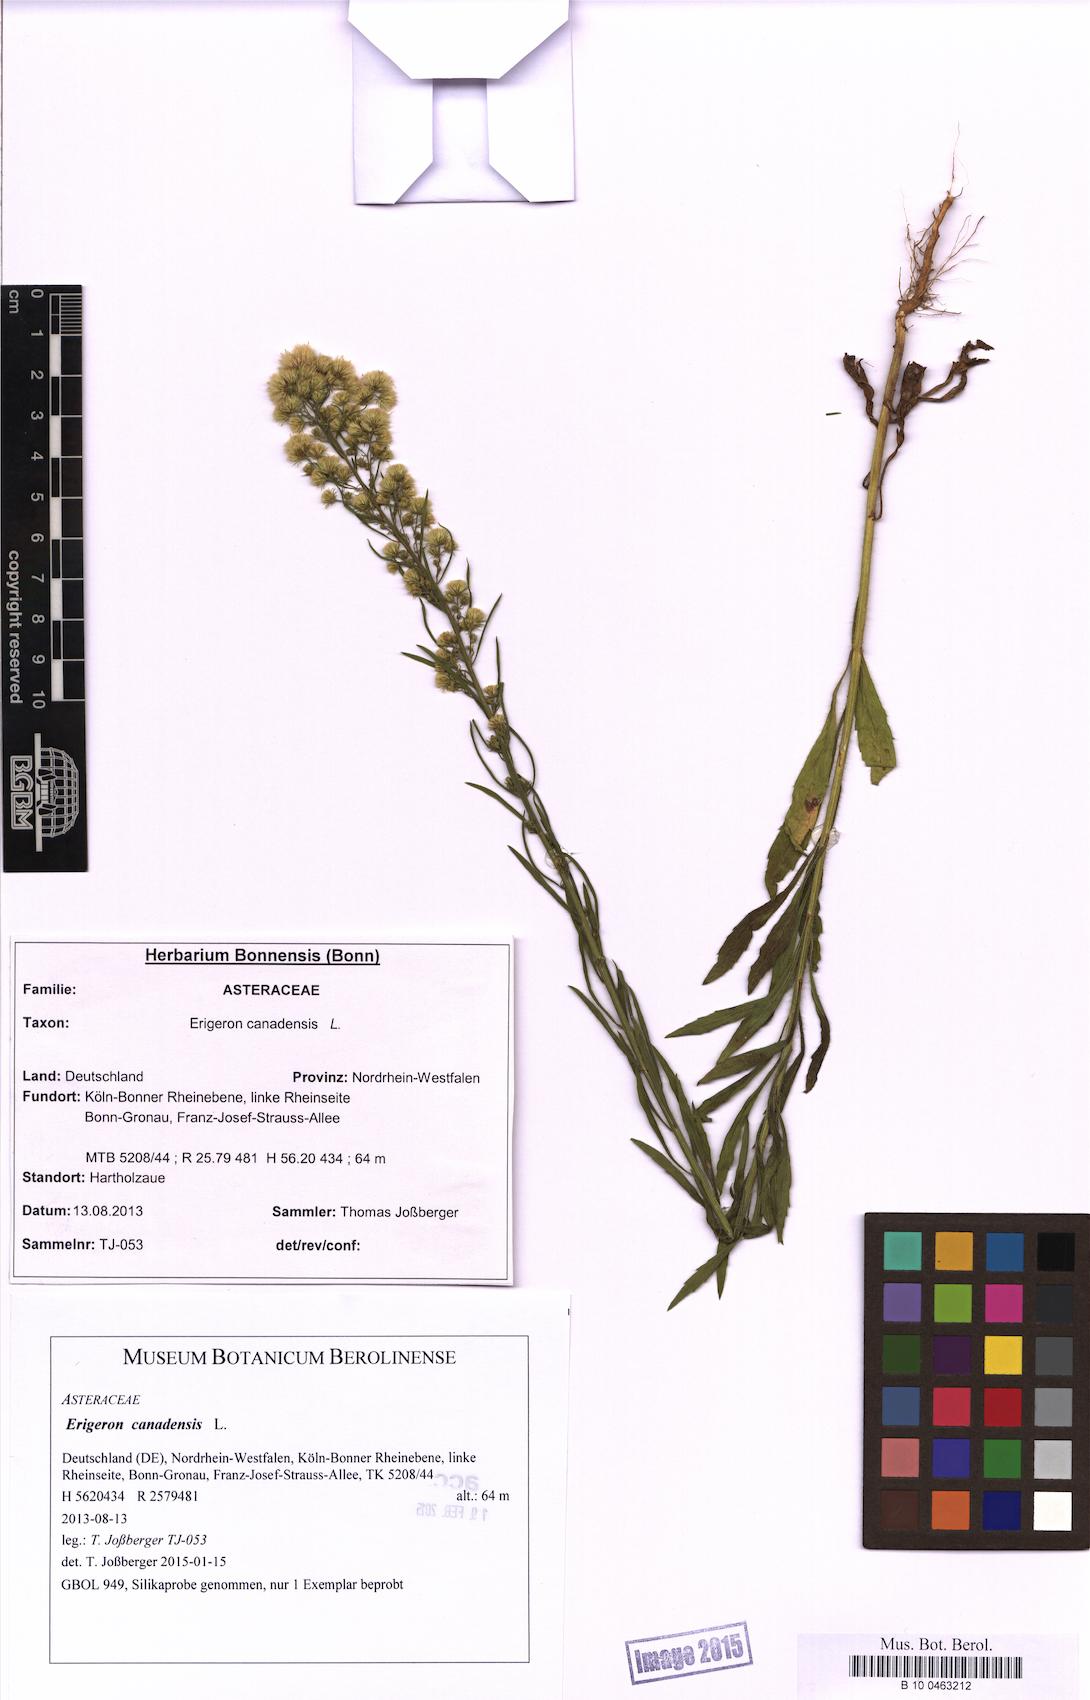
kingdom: Plantae
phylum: Tracheophyta
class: Magnoliopsida
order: Asterales
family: Asteraceae
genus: Erigeron
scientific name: Erigeron canadensis
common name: Canadian fleabane
